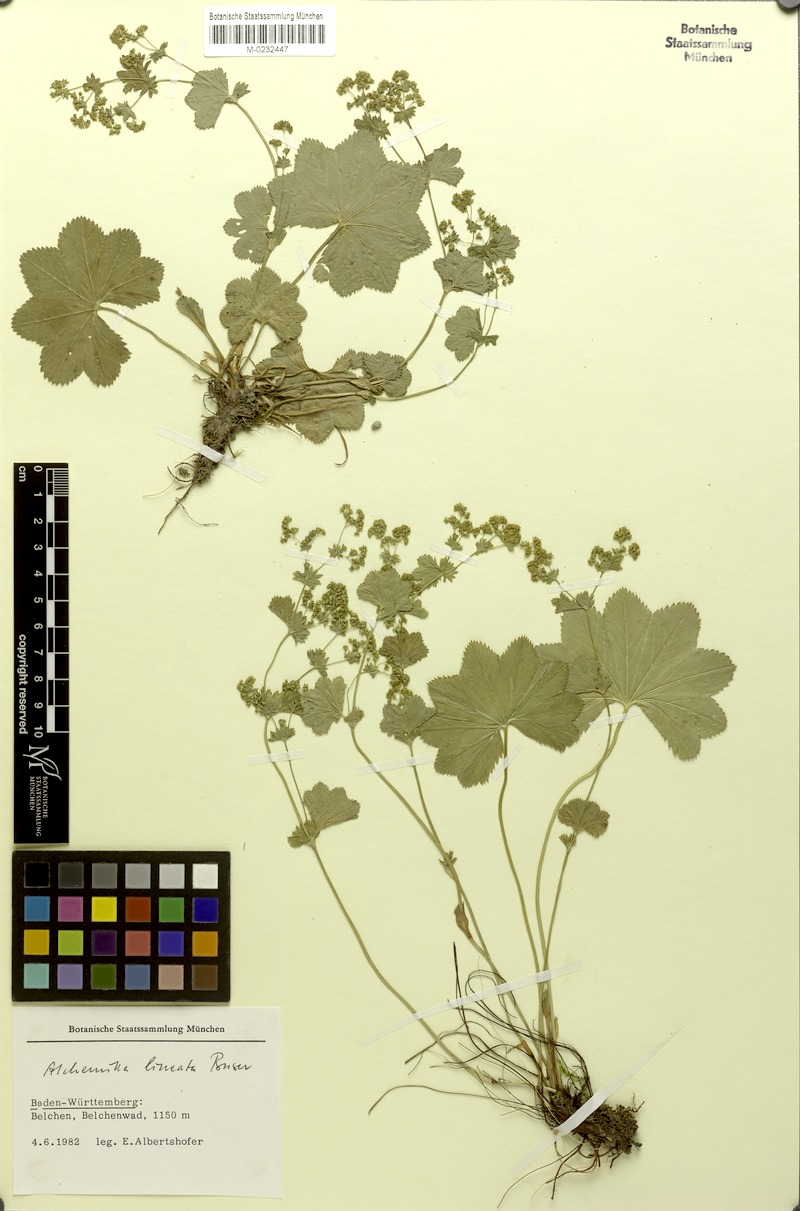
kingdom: Plantae
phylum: Tracheophyta
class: Magnoliopsida
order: Rosales
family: Rosaceae
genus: Alchemilla
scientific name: Alchemilla lineata
